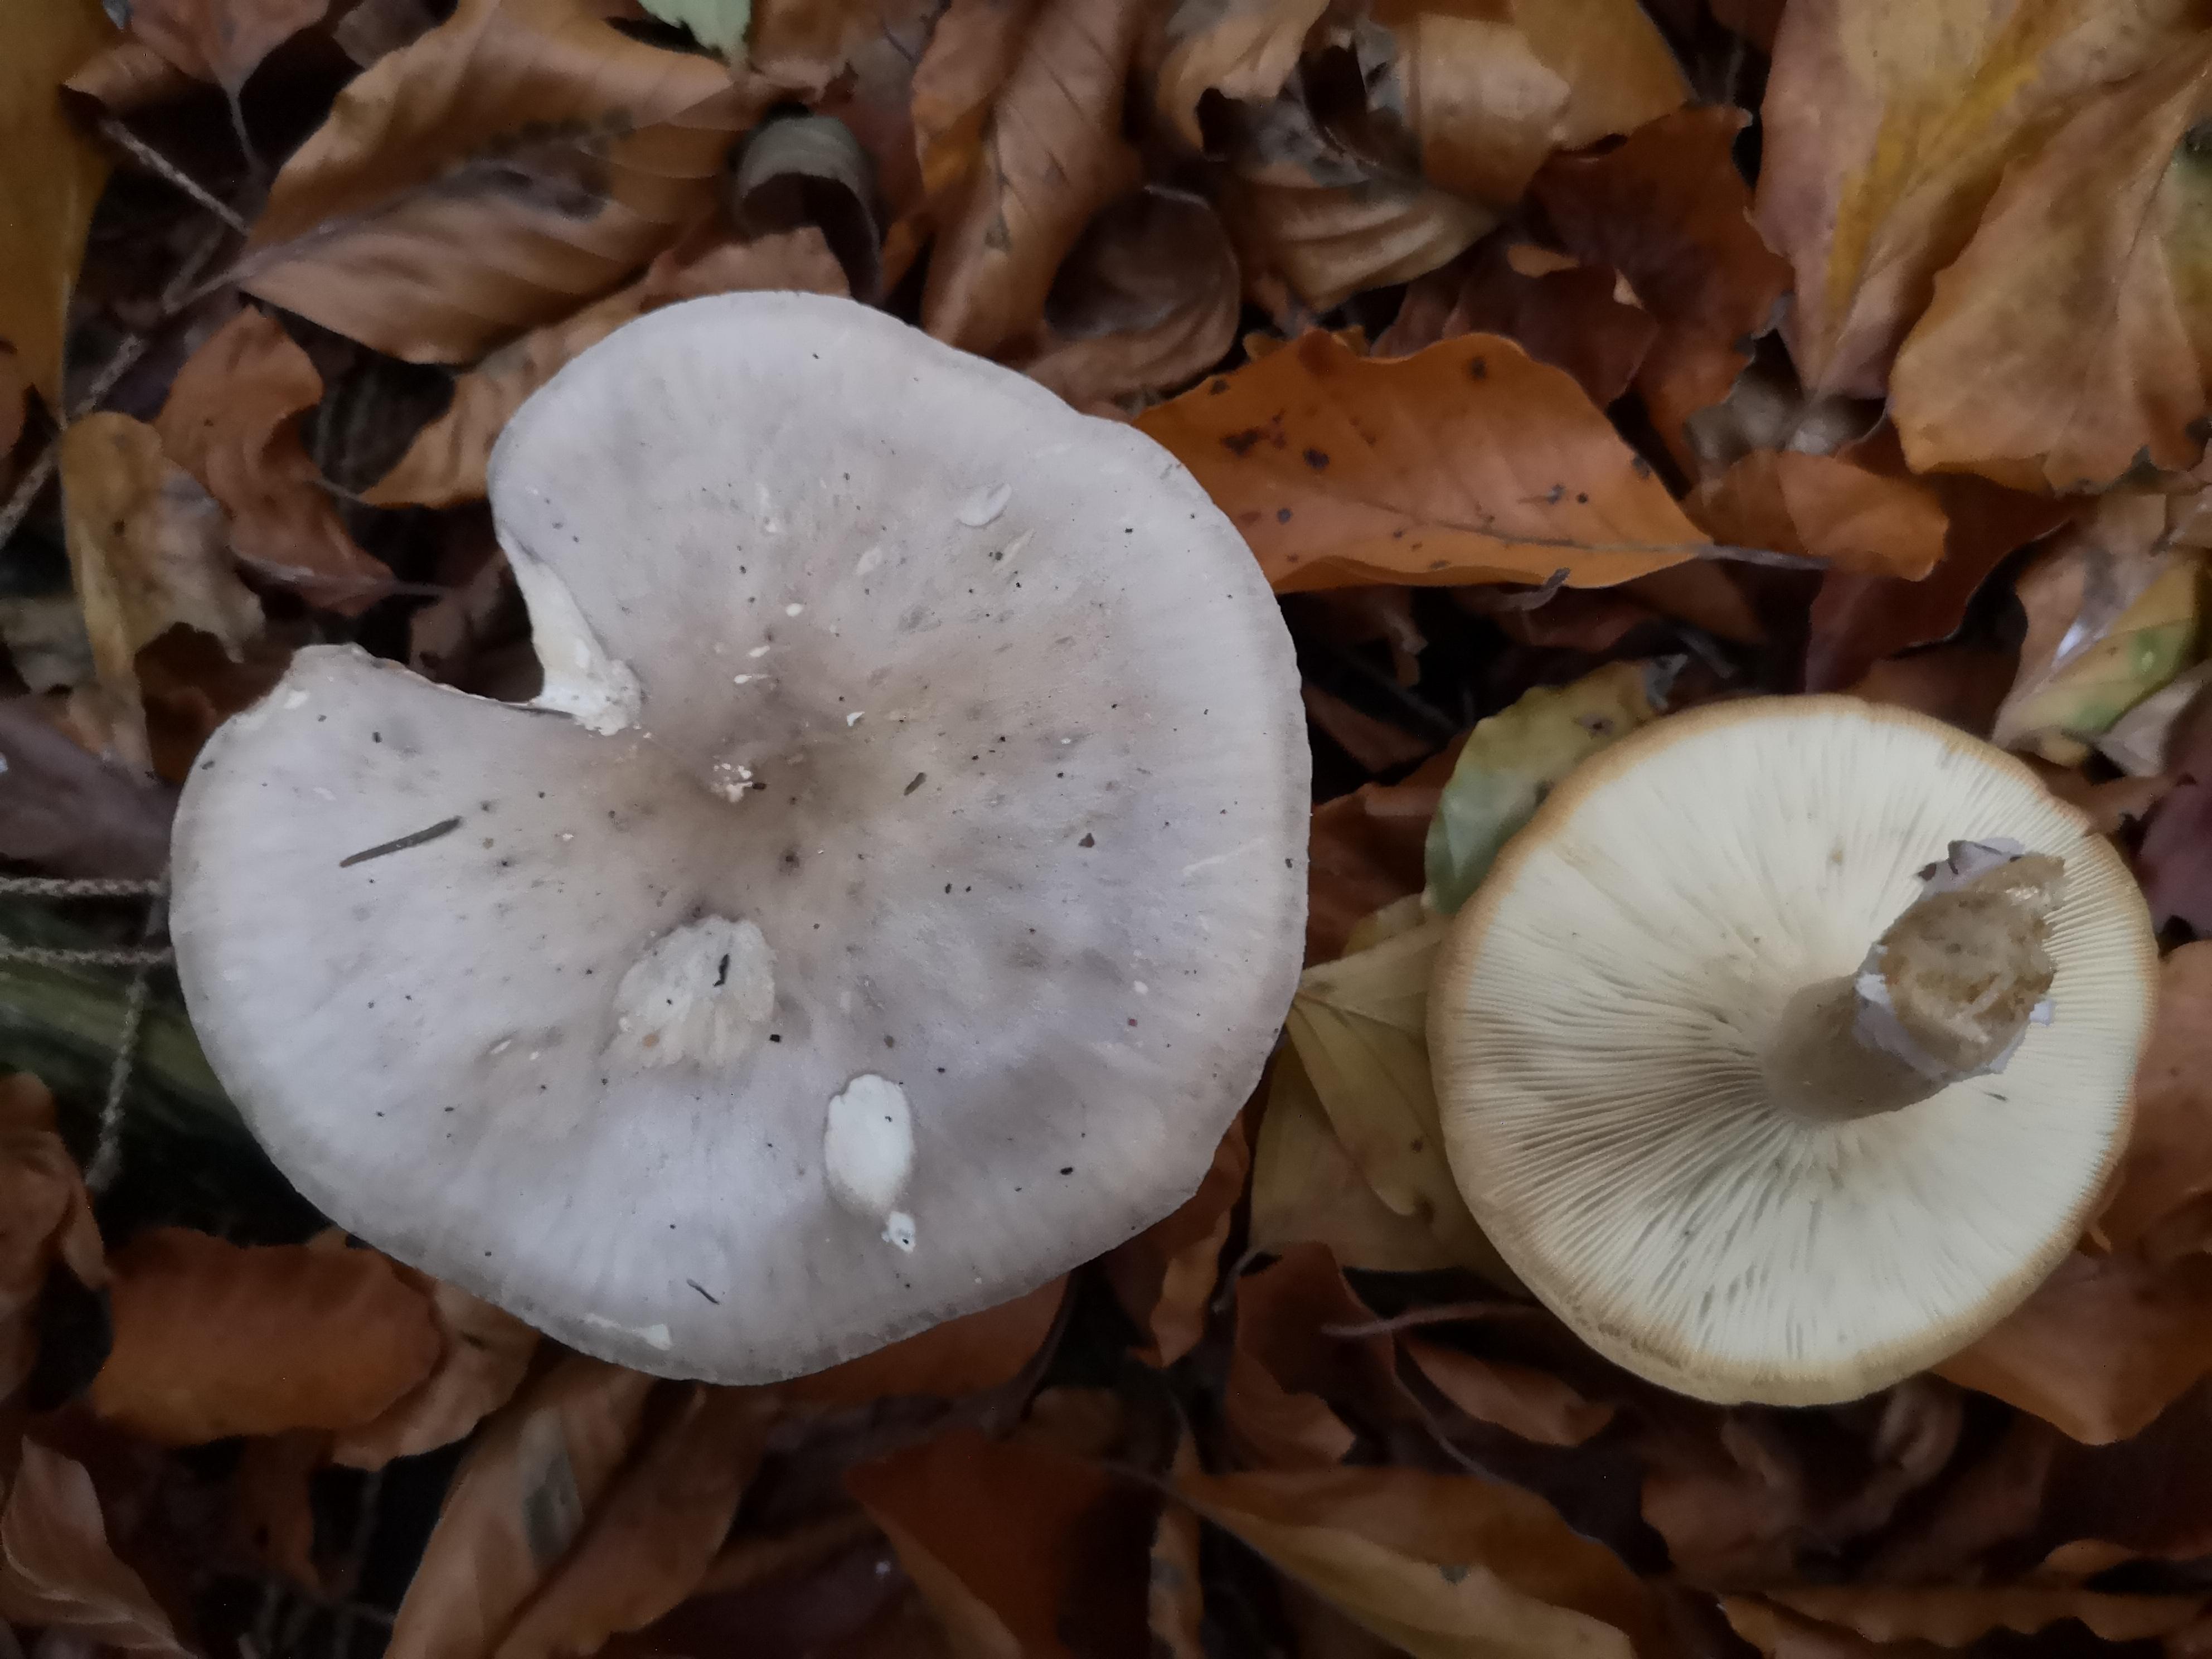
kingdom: Fungi
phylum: Basidiomycota
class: Agaricomycetes
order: Agaricales
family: Tricholomataceae
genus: Clitocybe
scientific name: Clitocybe nebularis
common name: tåge-tragthat
